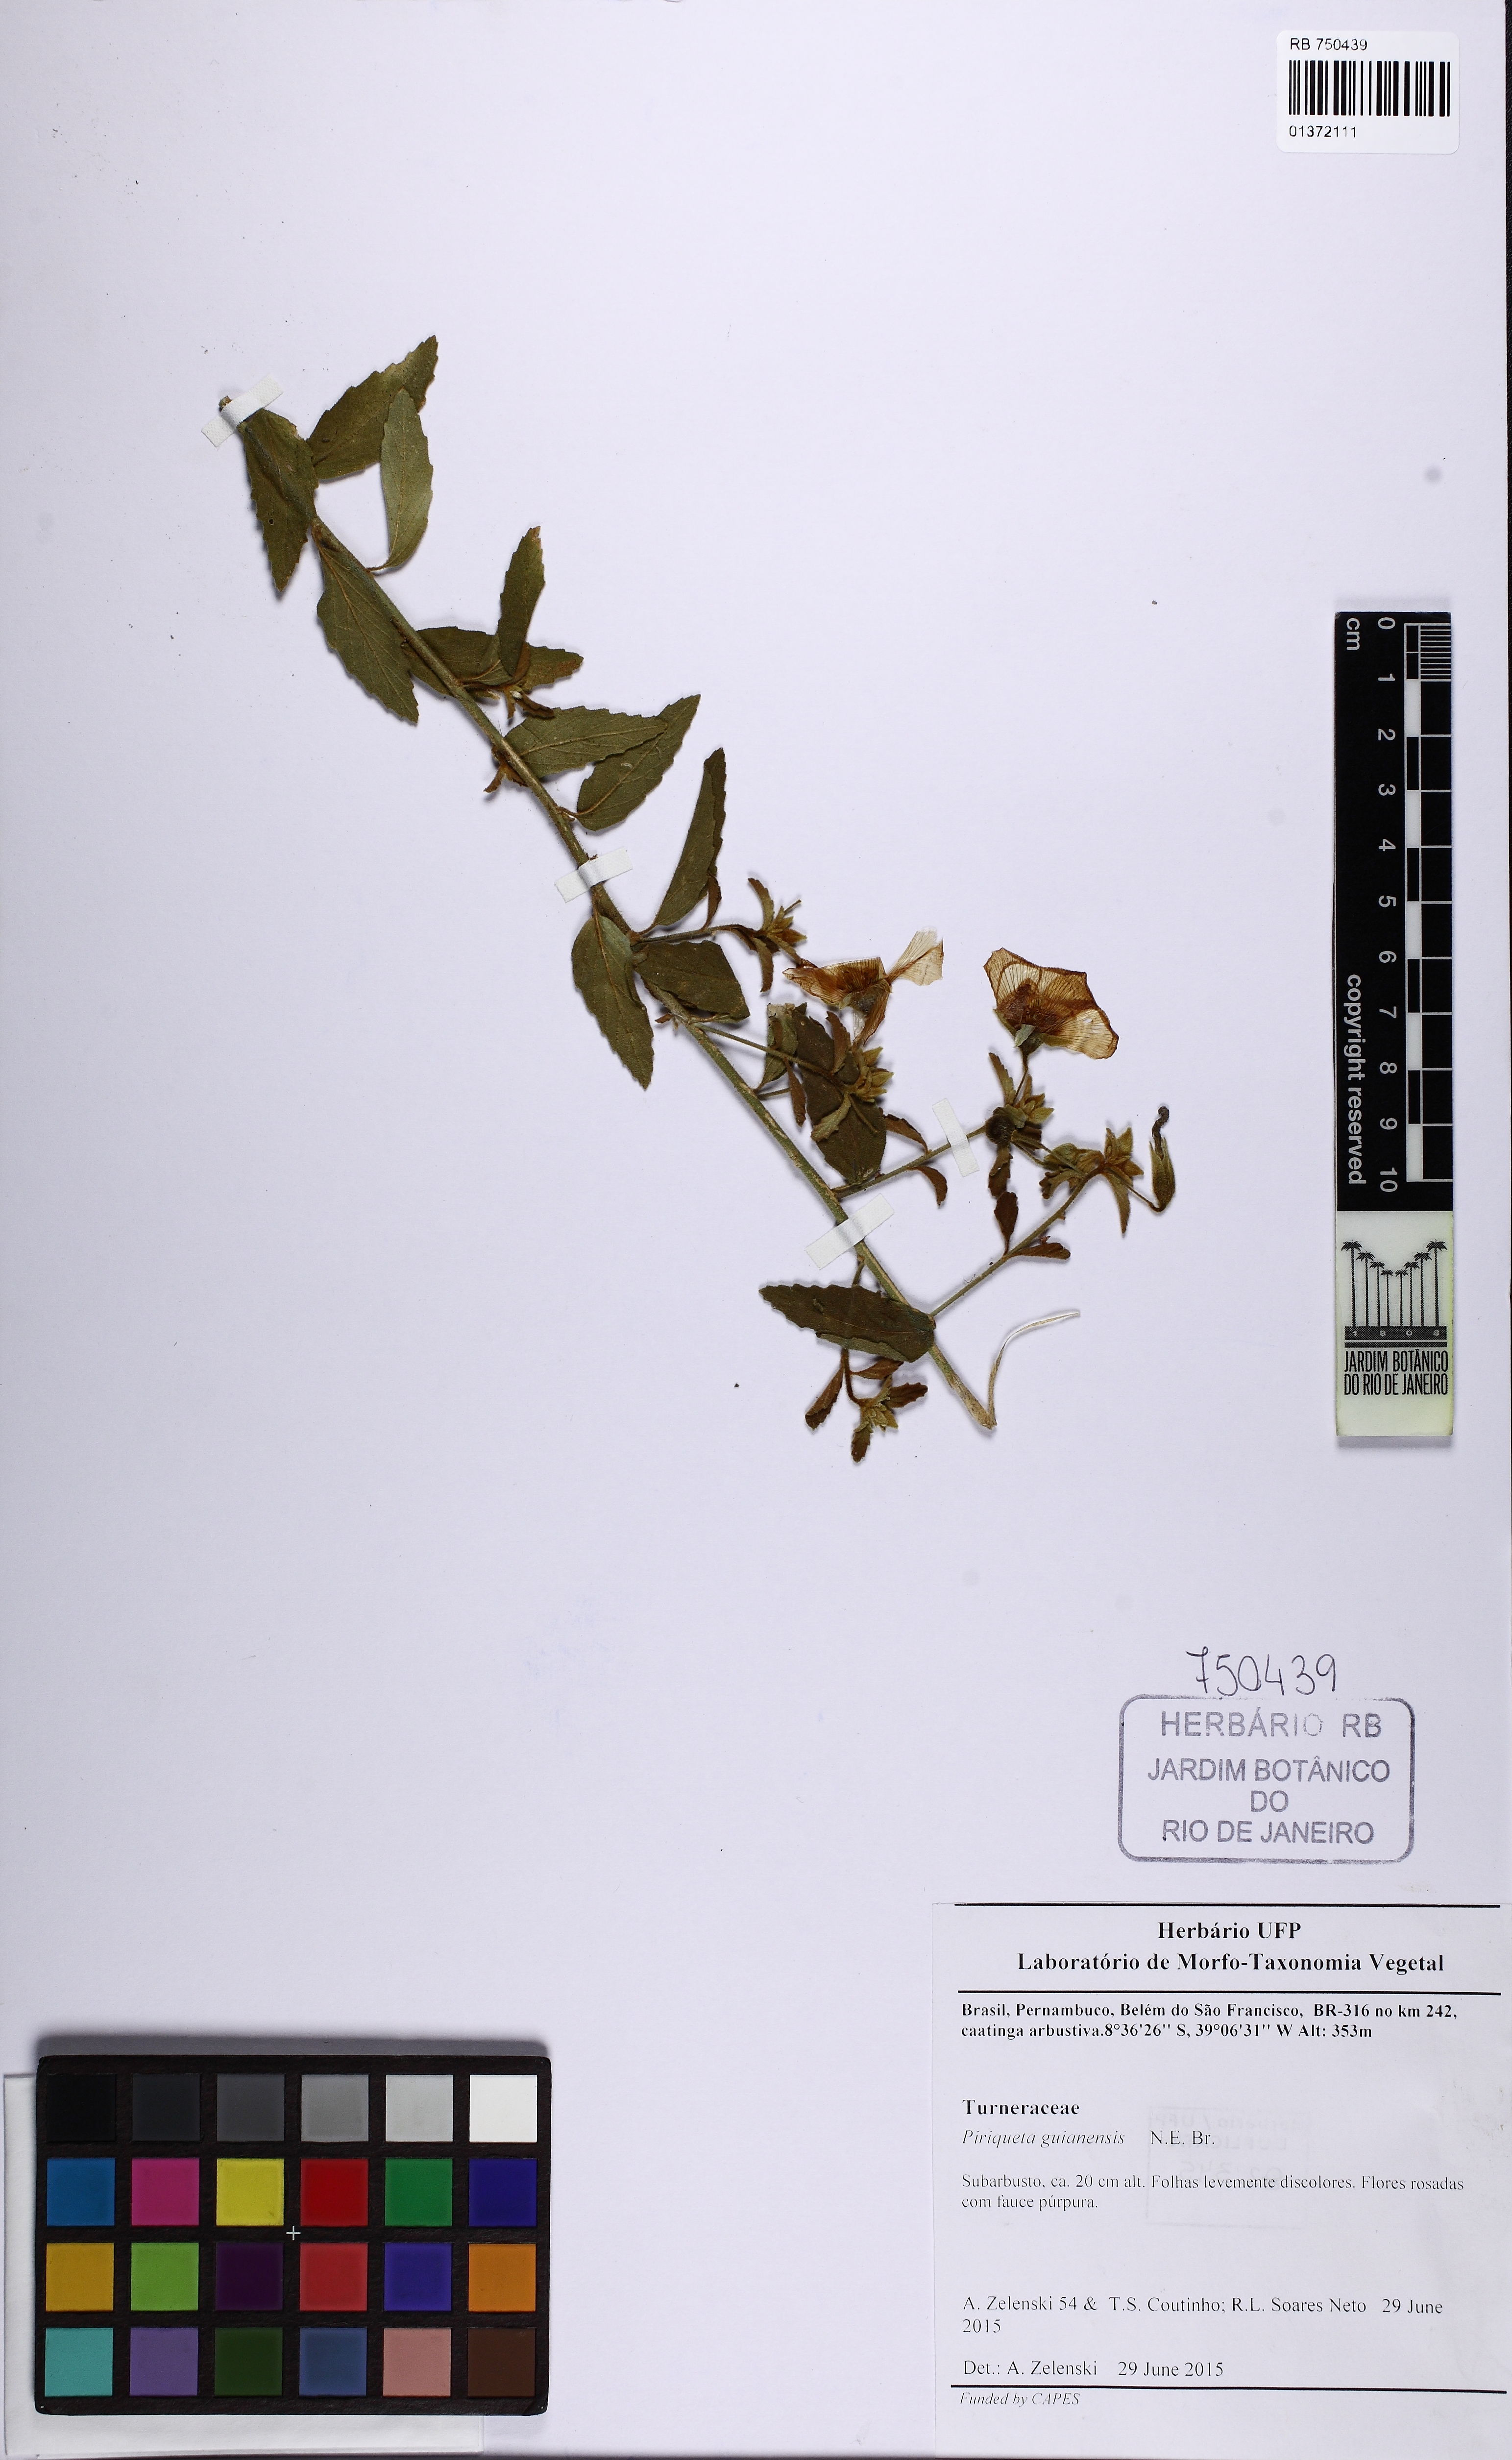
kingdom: Plantae
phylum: Tracheophyta
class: Magnoliopsida
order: Malpighiales
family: Turneraceae
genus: Piriqueta
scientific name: Piriqueta guianensis
